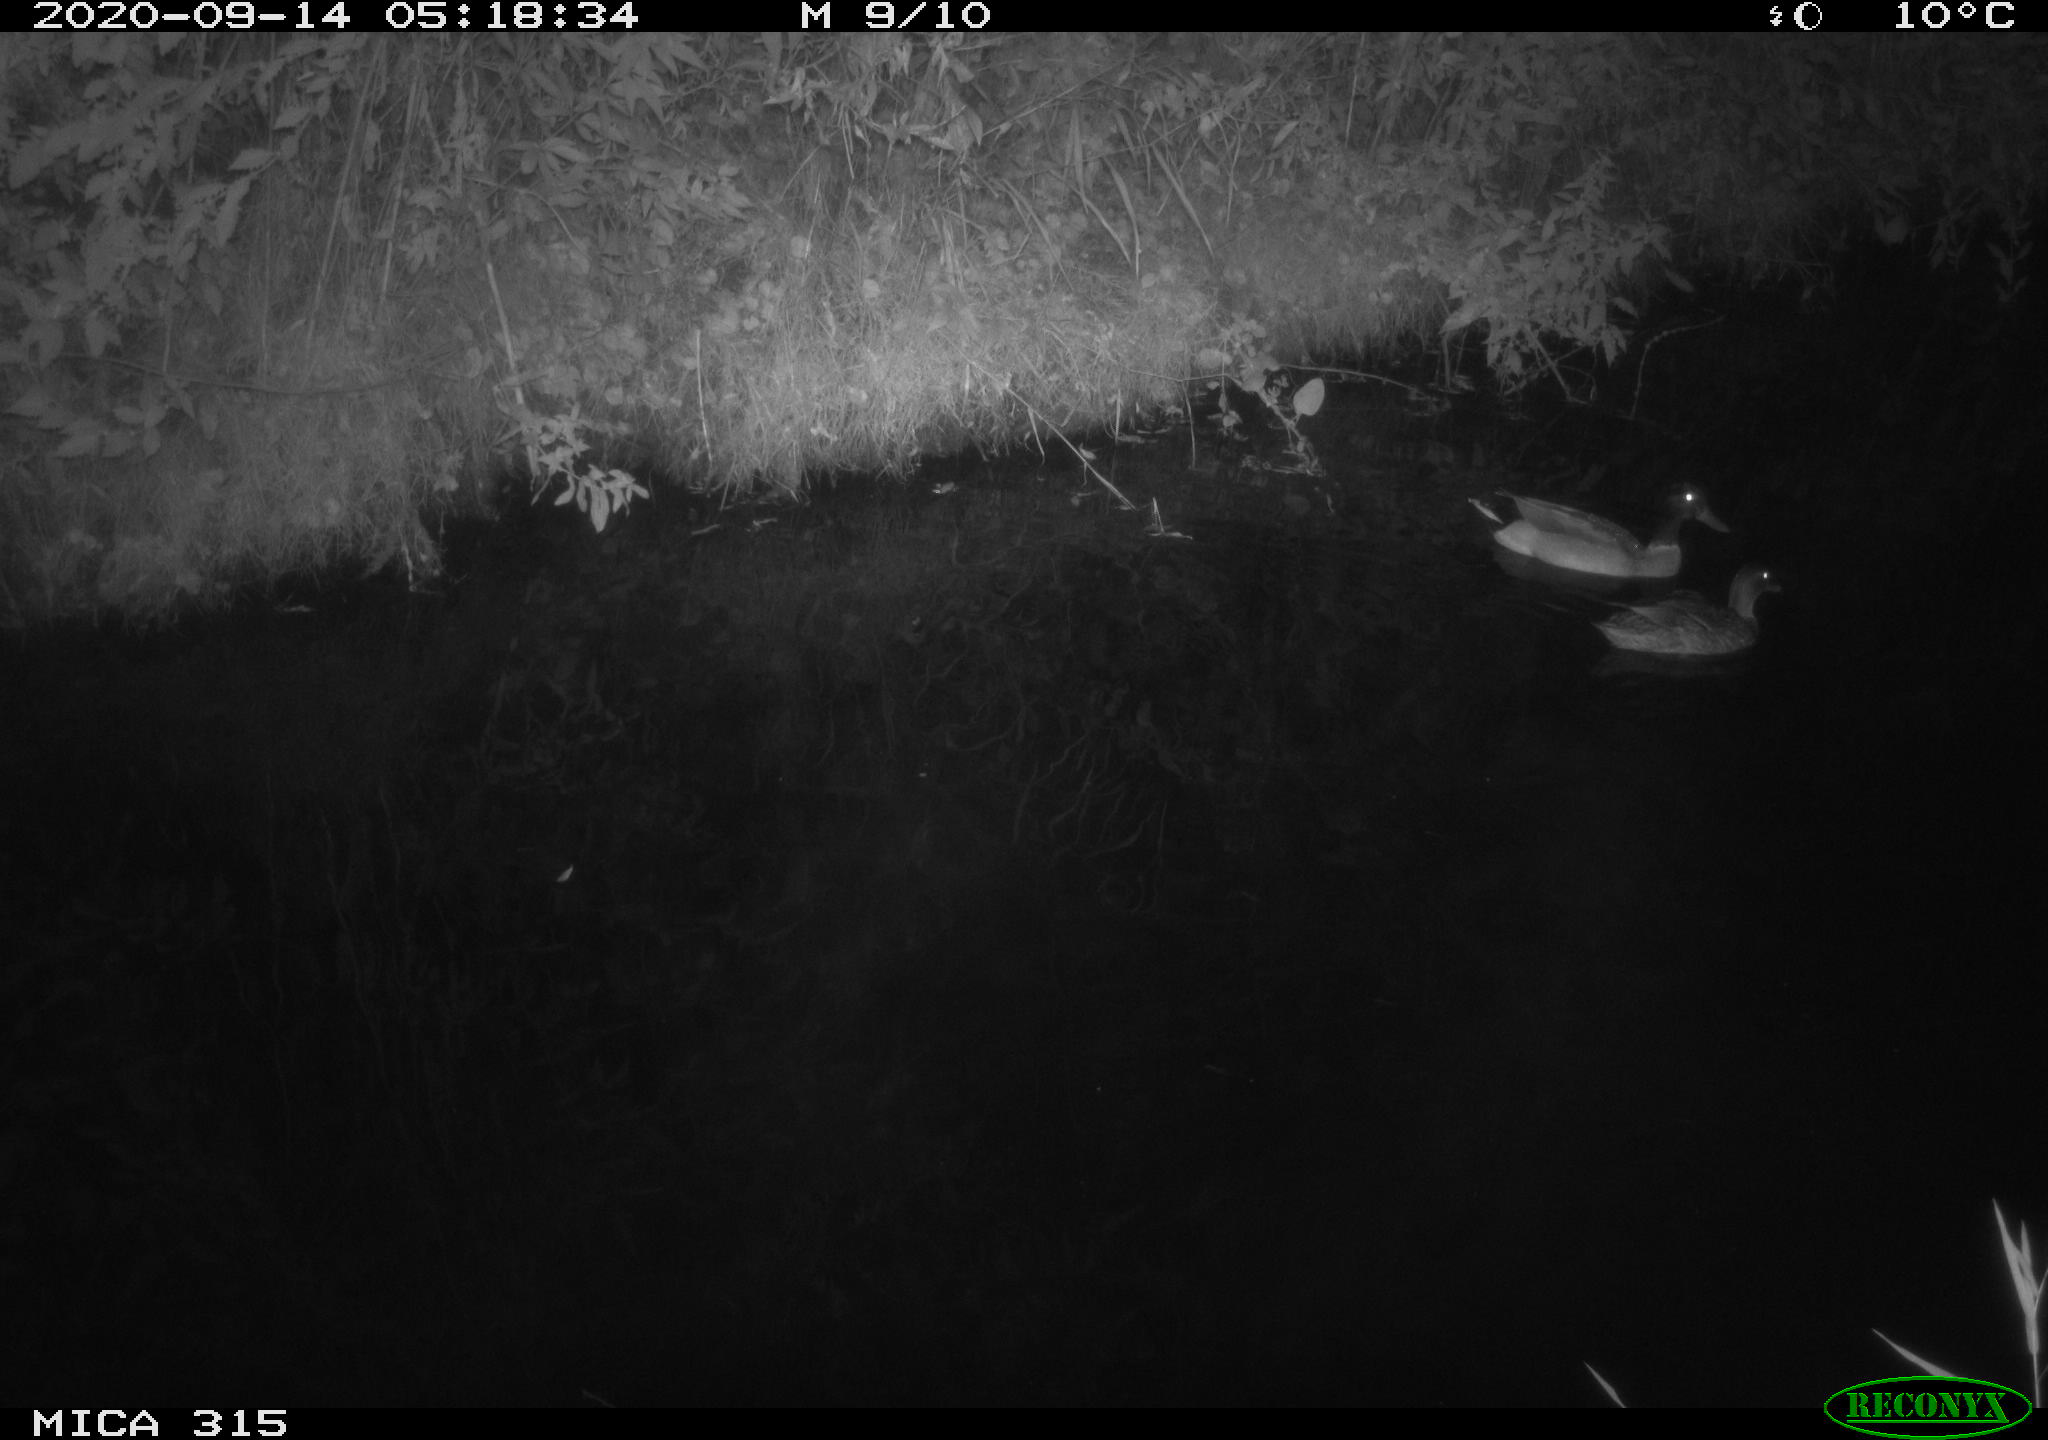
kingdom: Animalia
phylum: Chordata
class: Aves
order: Anseriformes
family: Anatidae
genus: Anas
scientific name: Anas platyrhynchos
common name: Mallard
